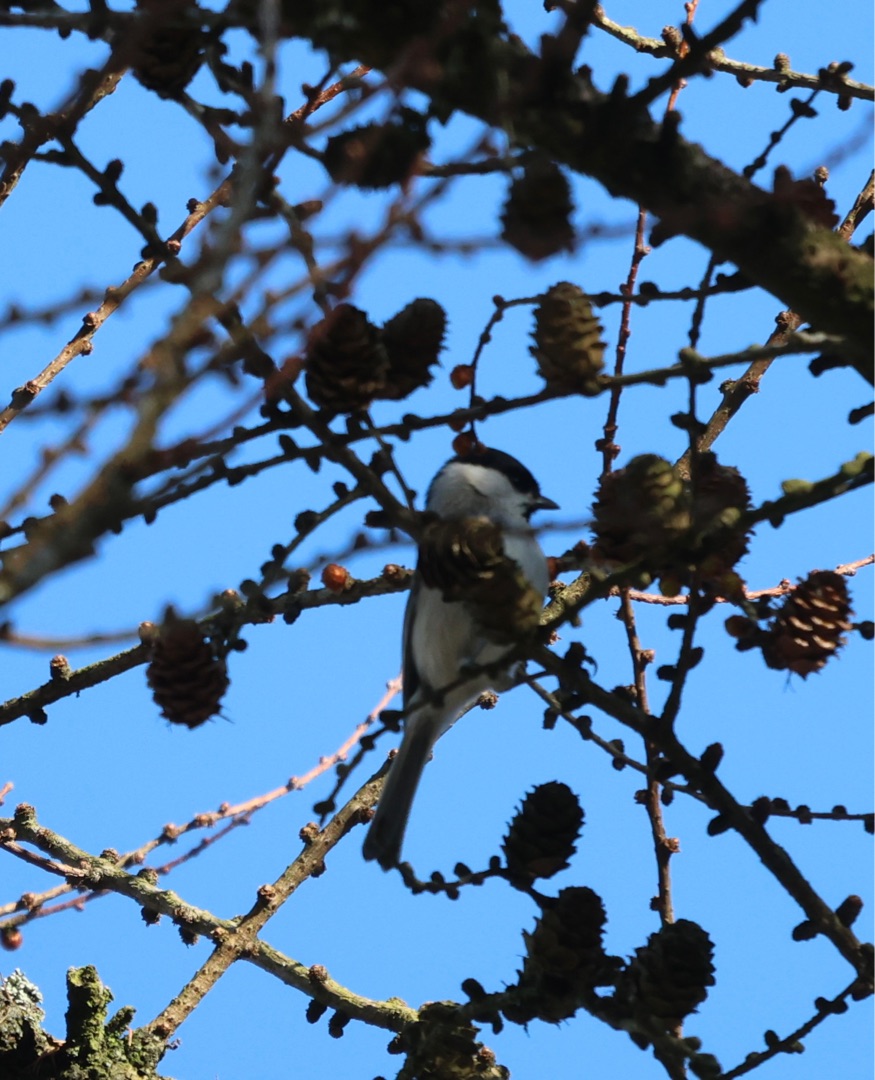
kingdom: Animalia
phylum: Chordata
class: Aves
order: Passeriformes
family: Paridae
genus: Poecile
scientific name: Poecile palustris
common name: Sumpmejse
